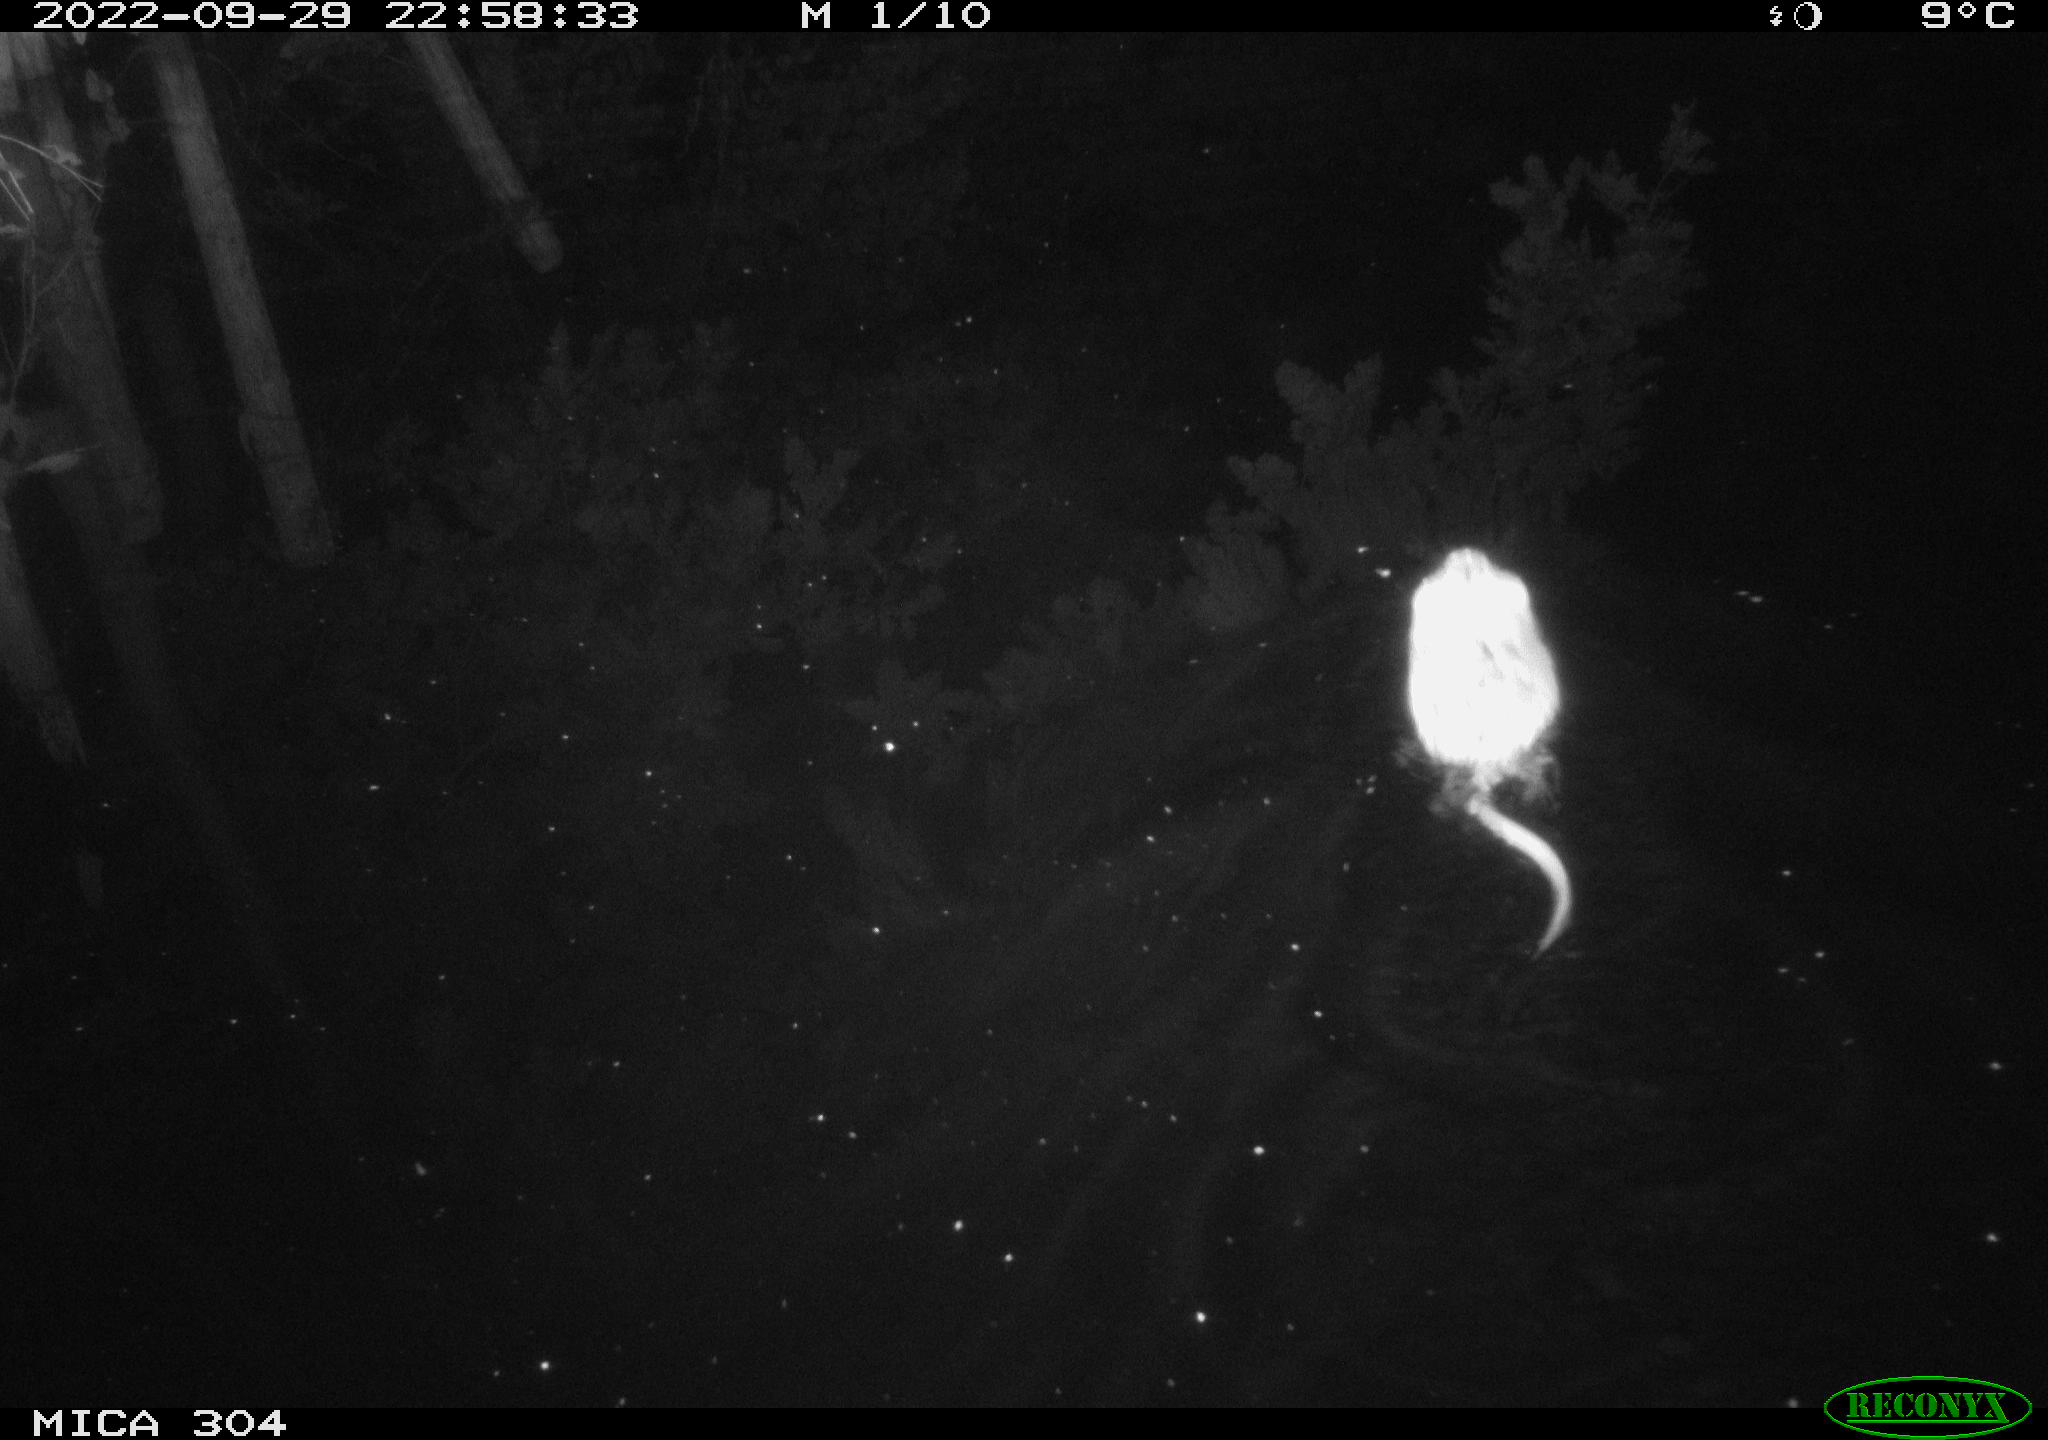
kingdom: Animalia
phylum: Chordata
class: Mammalia
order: Rodentia
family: Cricetidae
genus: Ondatra
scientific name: Ondatra zibethicus
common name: Muskrat
